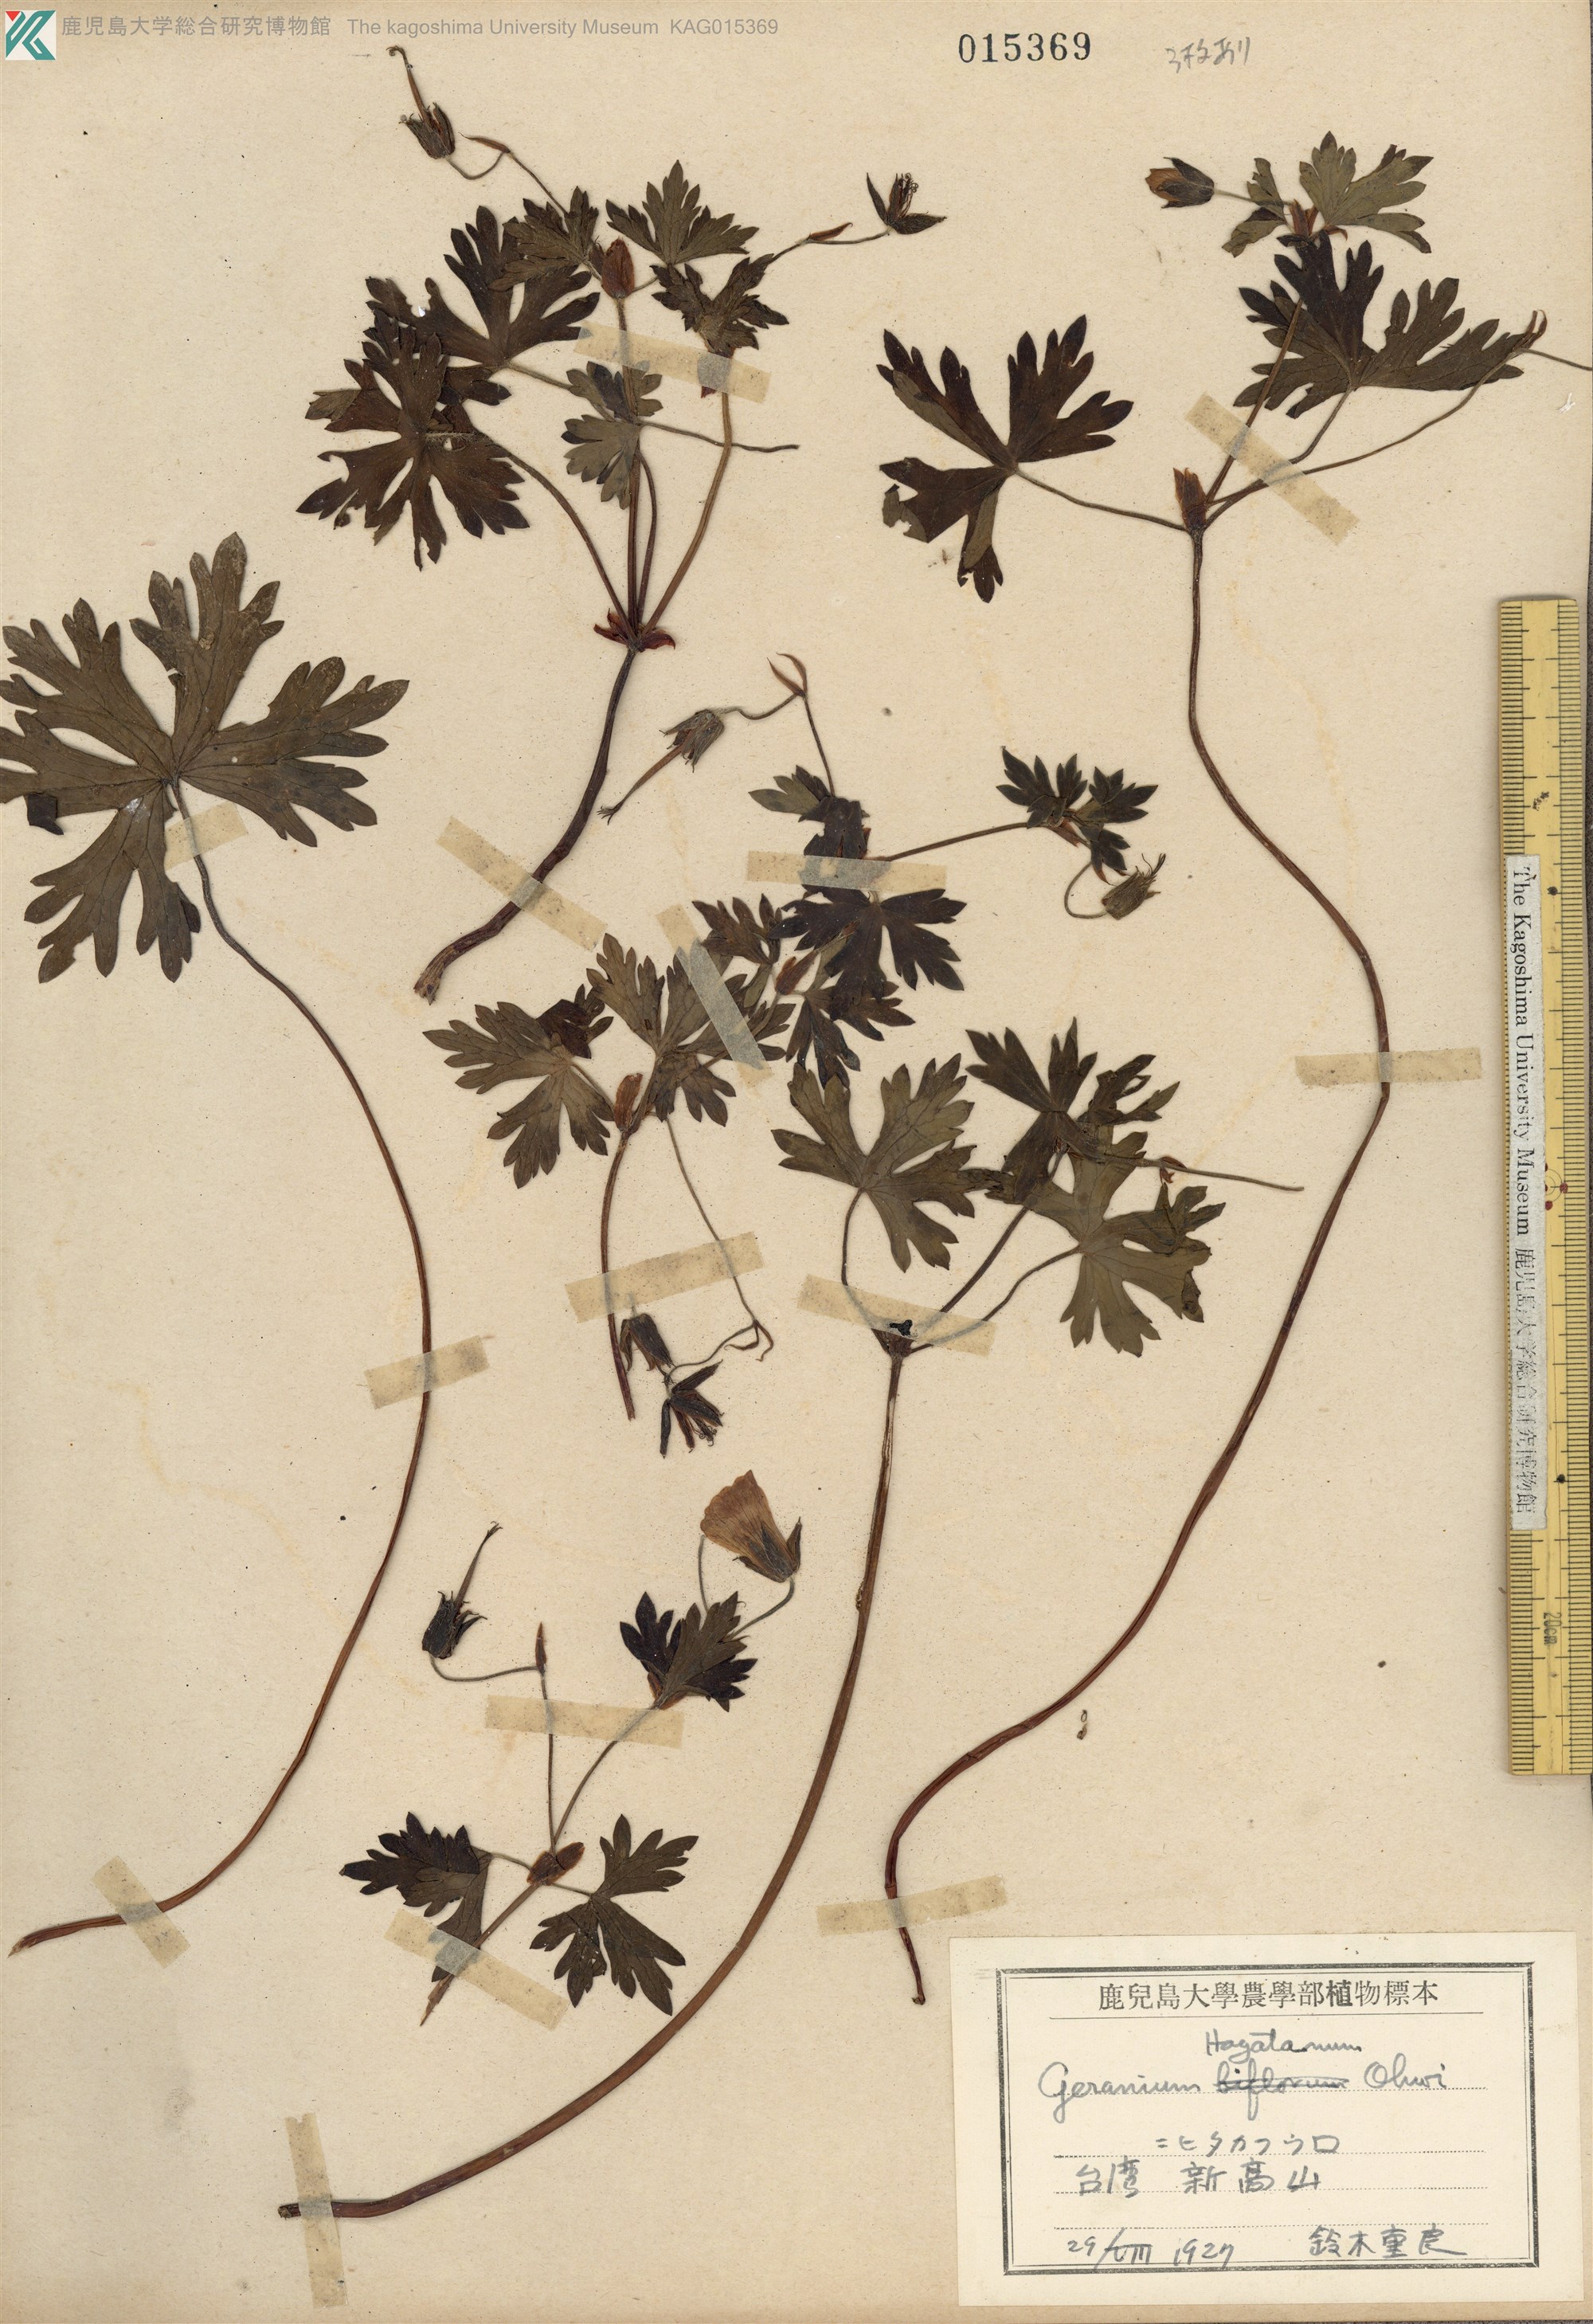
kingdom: Plantae
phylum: Tracheophyta
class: Magnoliopsida
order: Geraniales
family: Geraniaceae
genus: Geranium
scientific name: Geranium hayatanum
